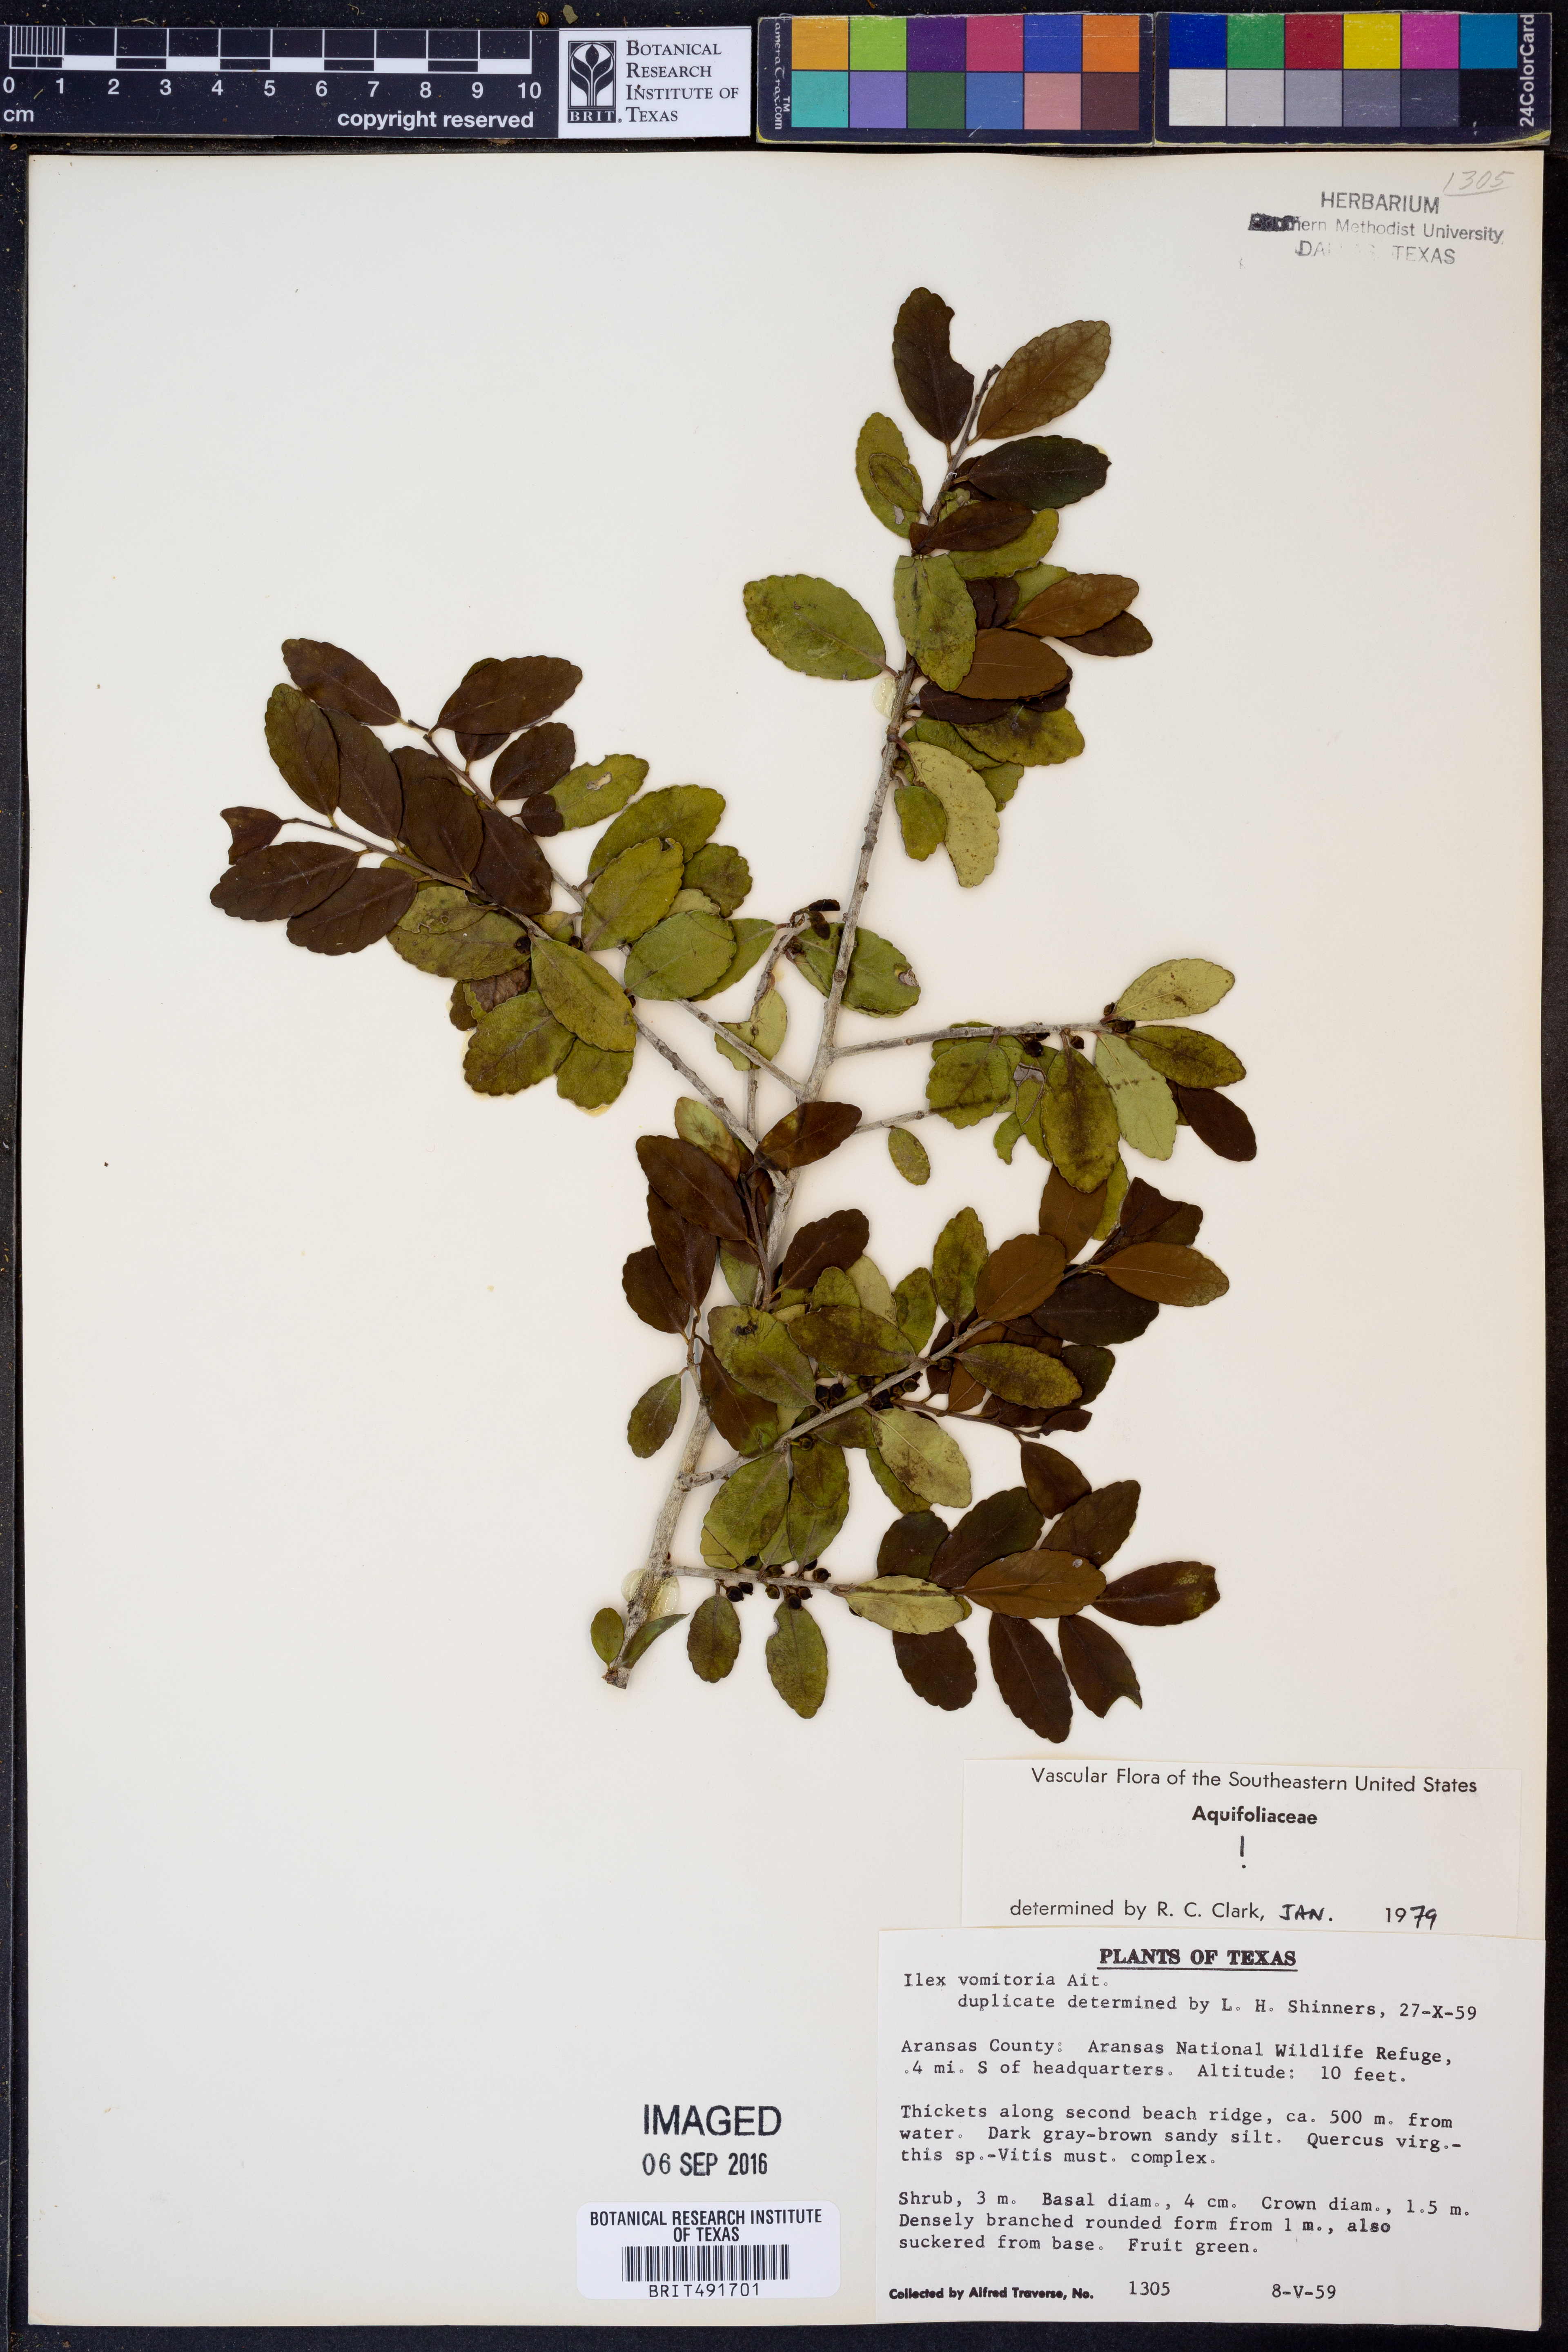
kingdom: Plantae
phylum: Tracheophyta
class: Magnoliopsida
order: Aquifoliales
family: Aquifoliaceae
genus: Ilex
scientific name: Ilex vomitoria
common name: Yaupon holly
